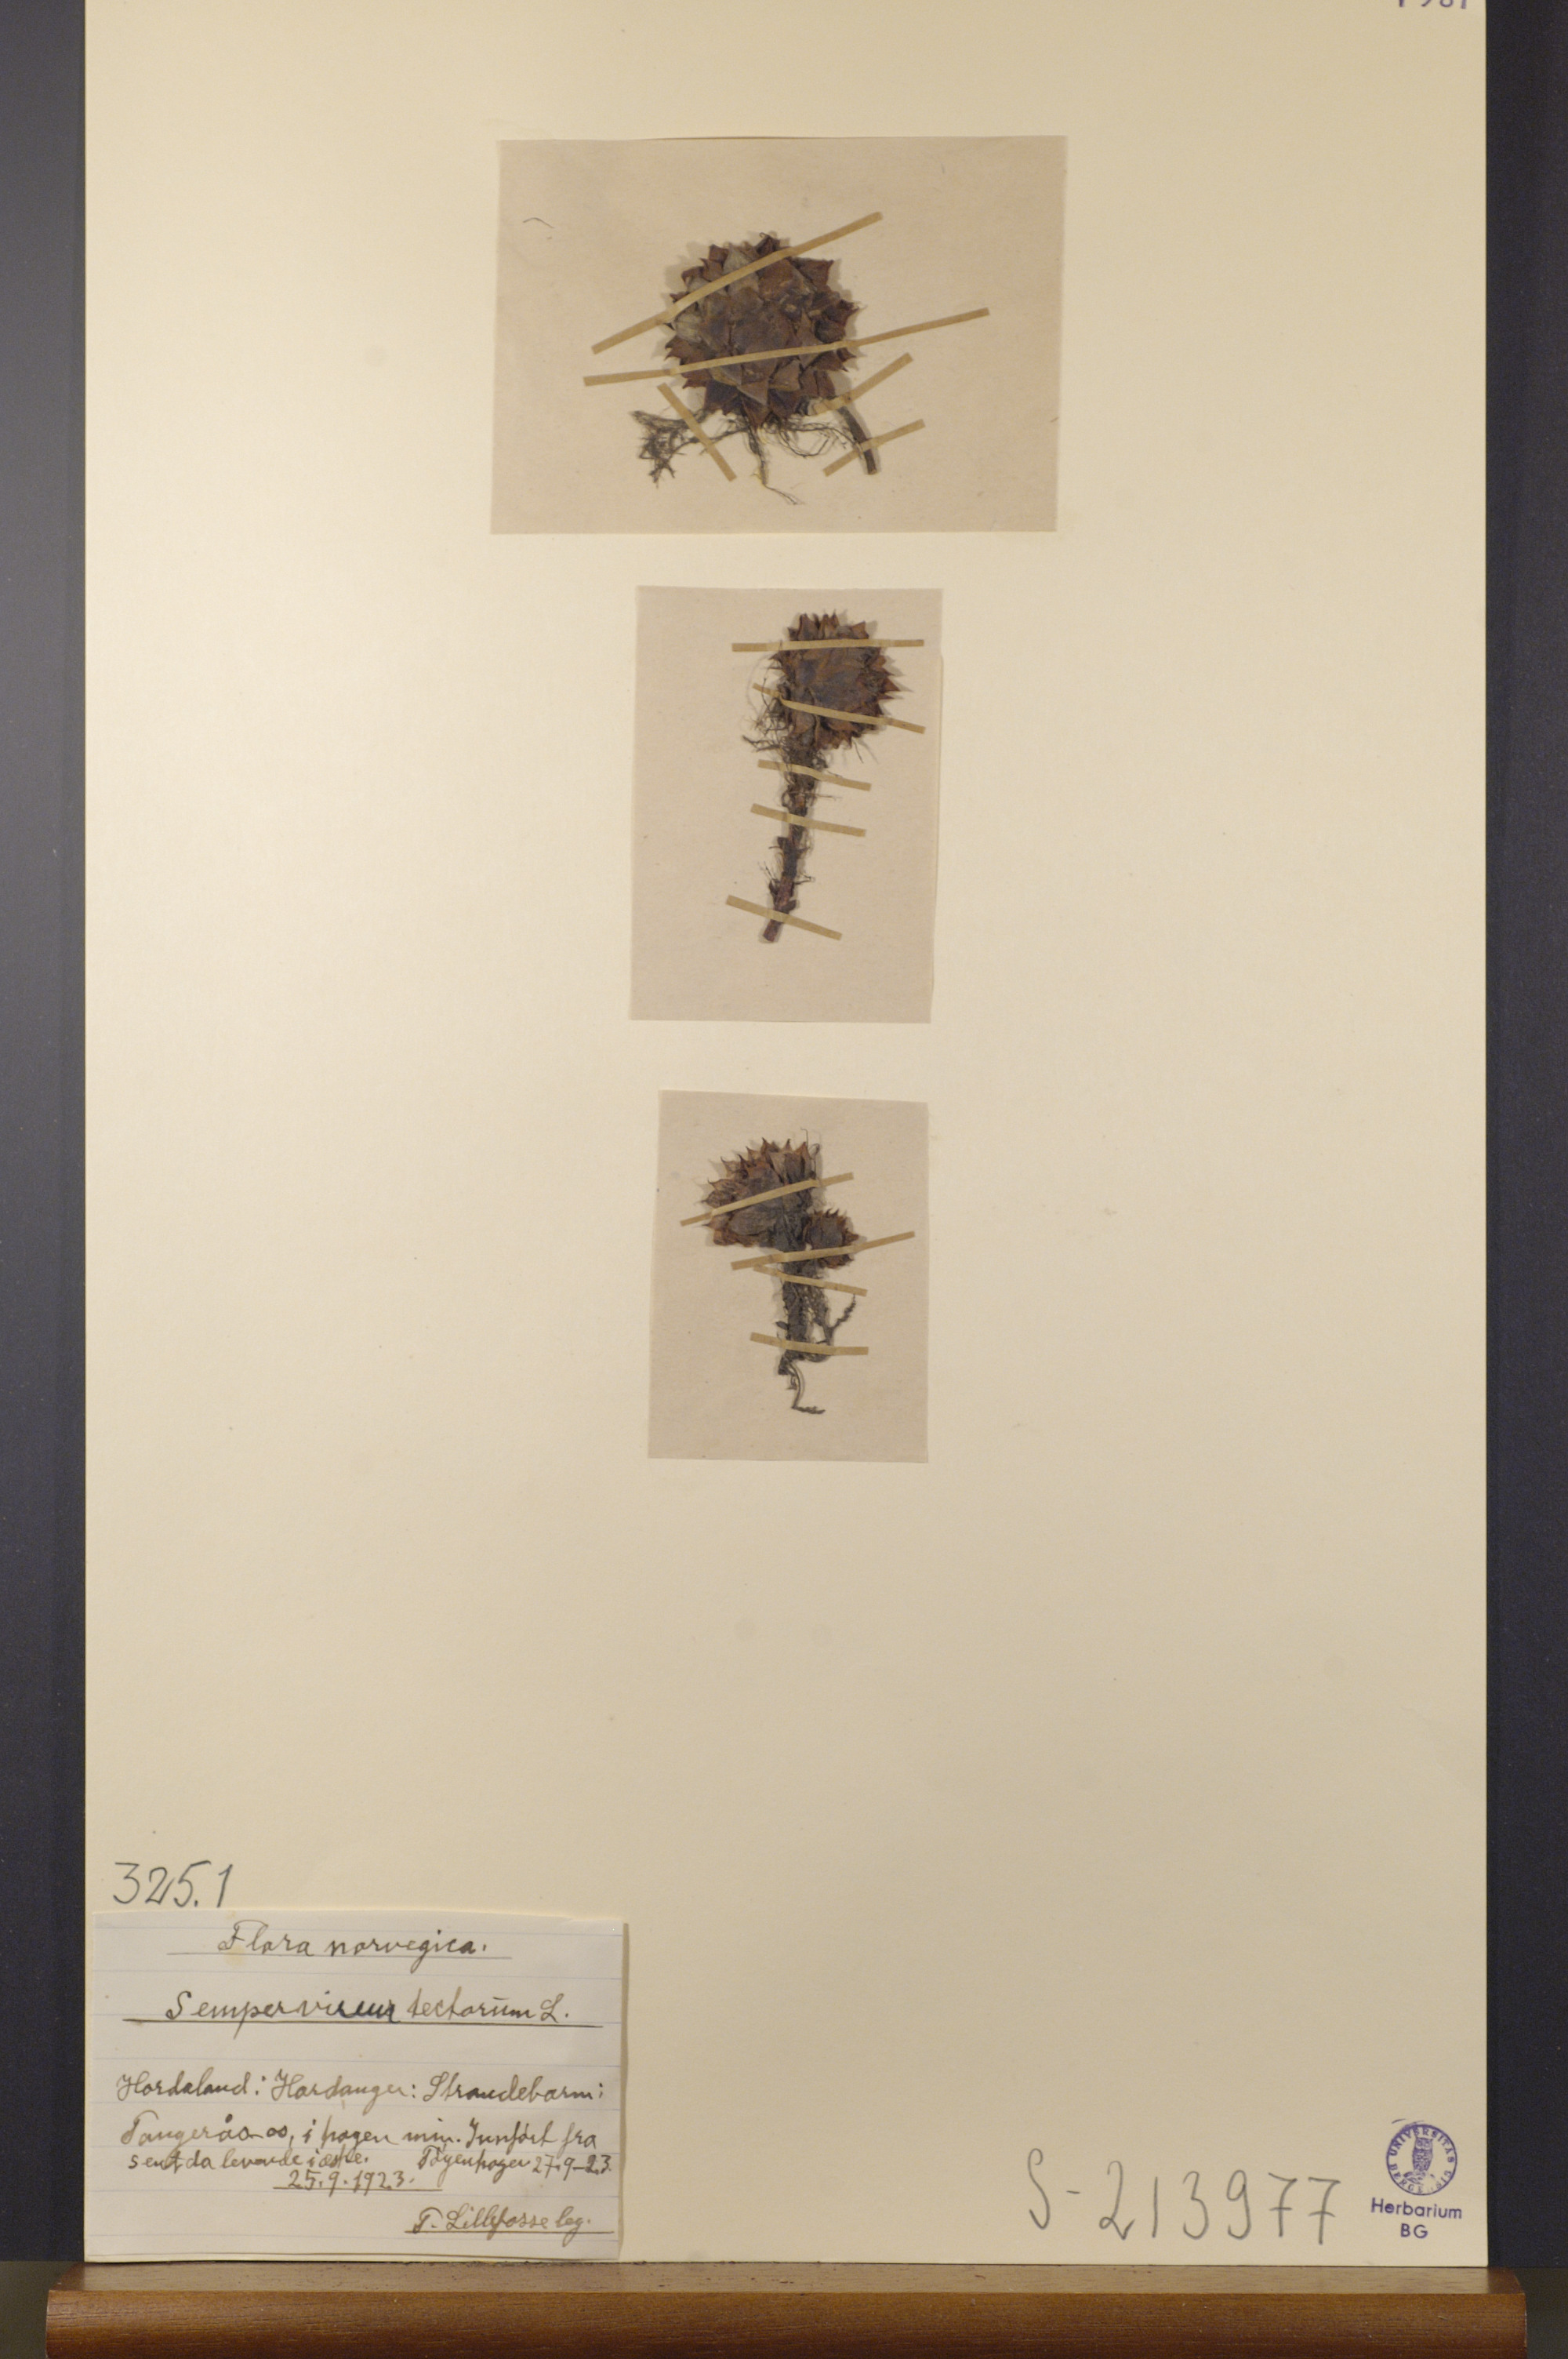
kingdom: Plantae
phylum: Tracheophyta
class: Magnoliopsida
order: Saxifragales
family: Crassulaceae
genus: Sempervivum
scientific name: Sempervivum tectorum
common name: House-leek
